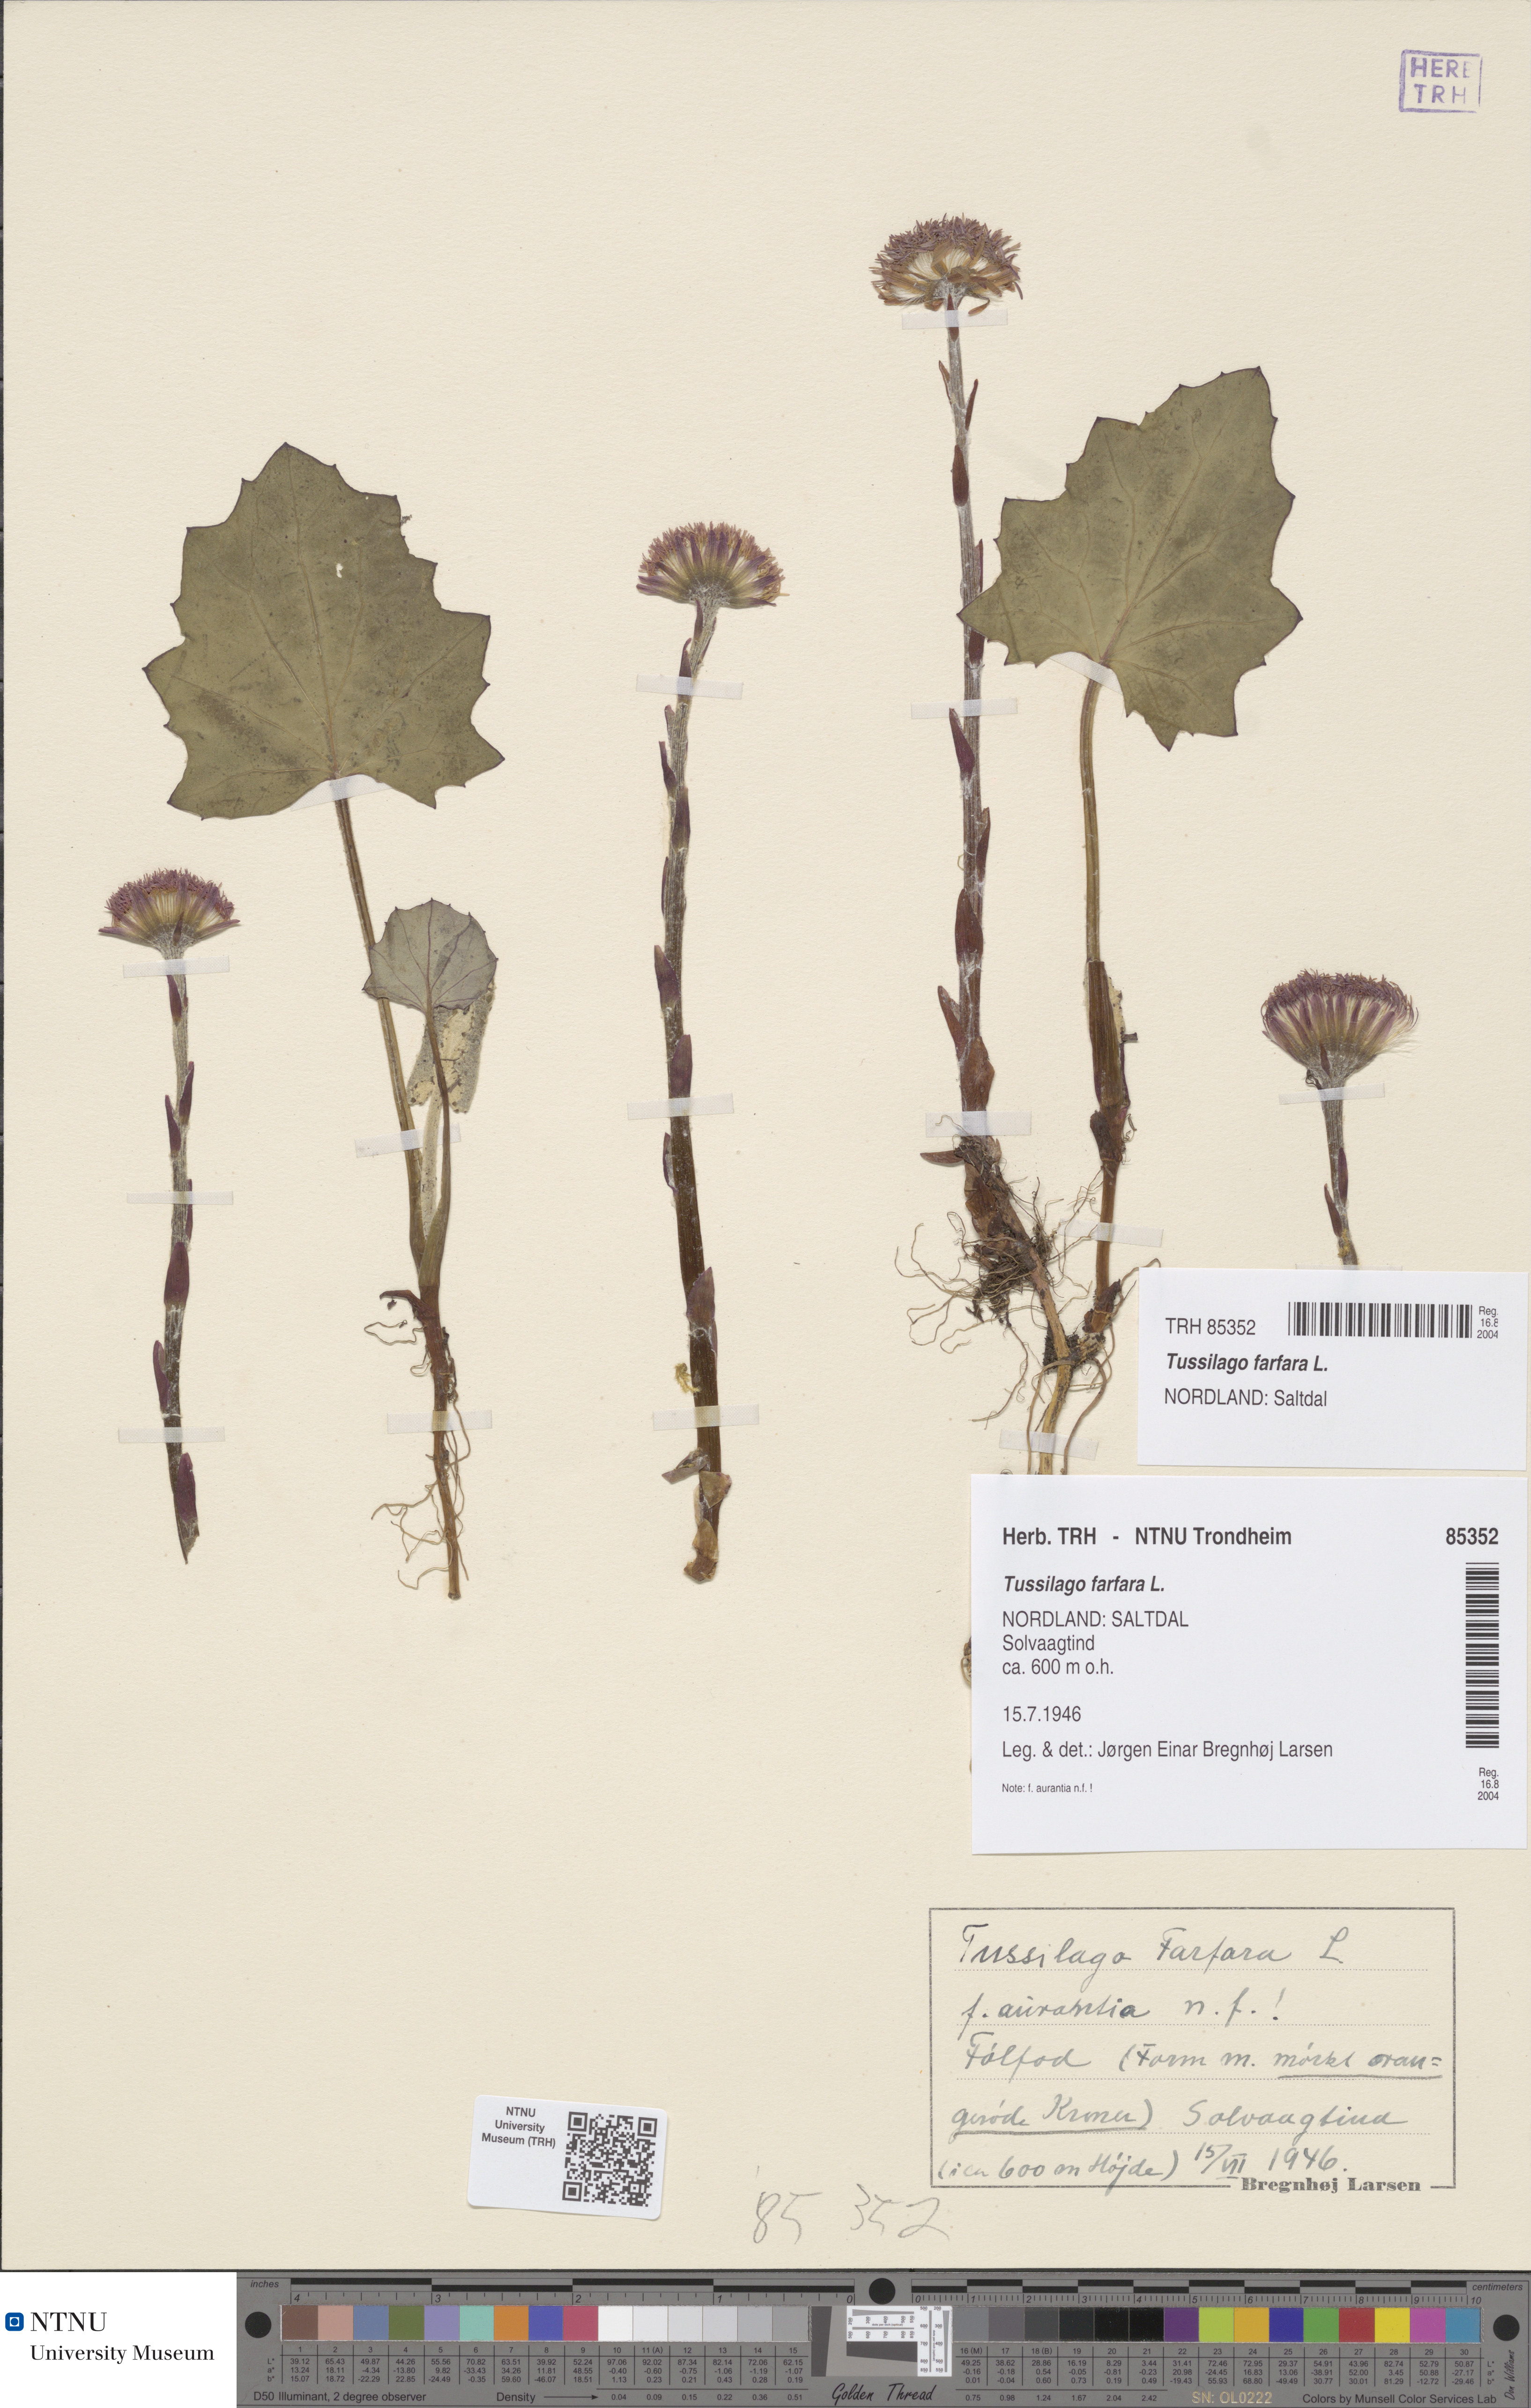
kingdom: Plantae
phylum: Tracheophyta
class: Magnoliopsida
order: Asterales
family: Asteraceae
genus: Tussilago
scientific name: Tussilago farfara
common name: Coltsfoot
